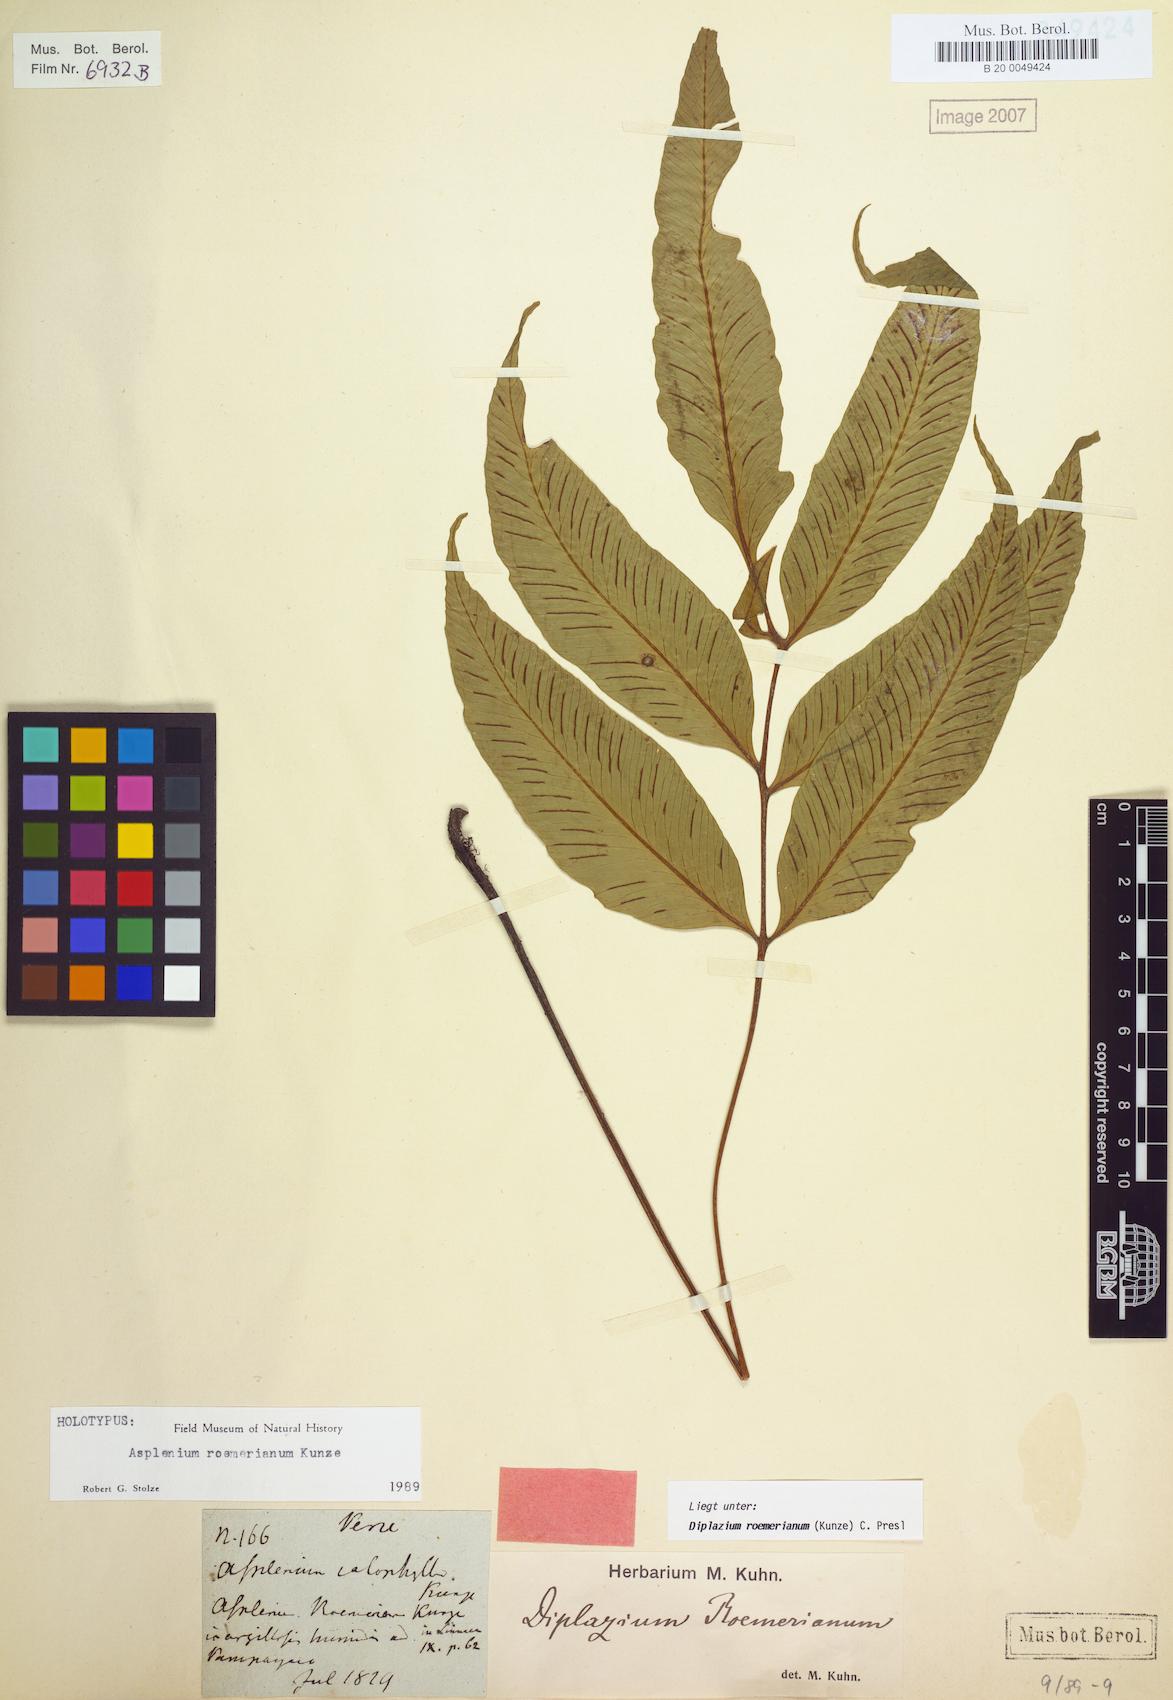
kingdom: Plantae
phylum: Tracheophyta
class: Polypodiopsida
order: Polypodiales
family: Athyriaceae
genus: Diplazium
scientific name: Diplazium roemerianum
